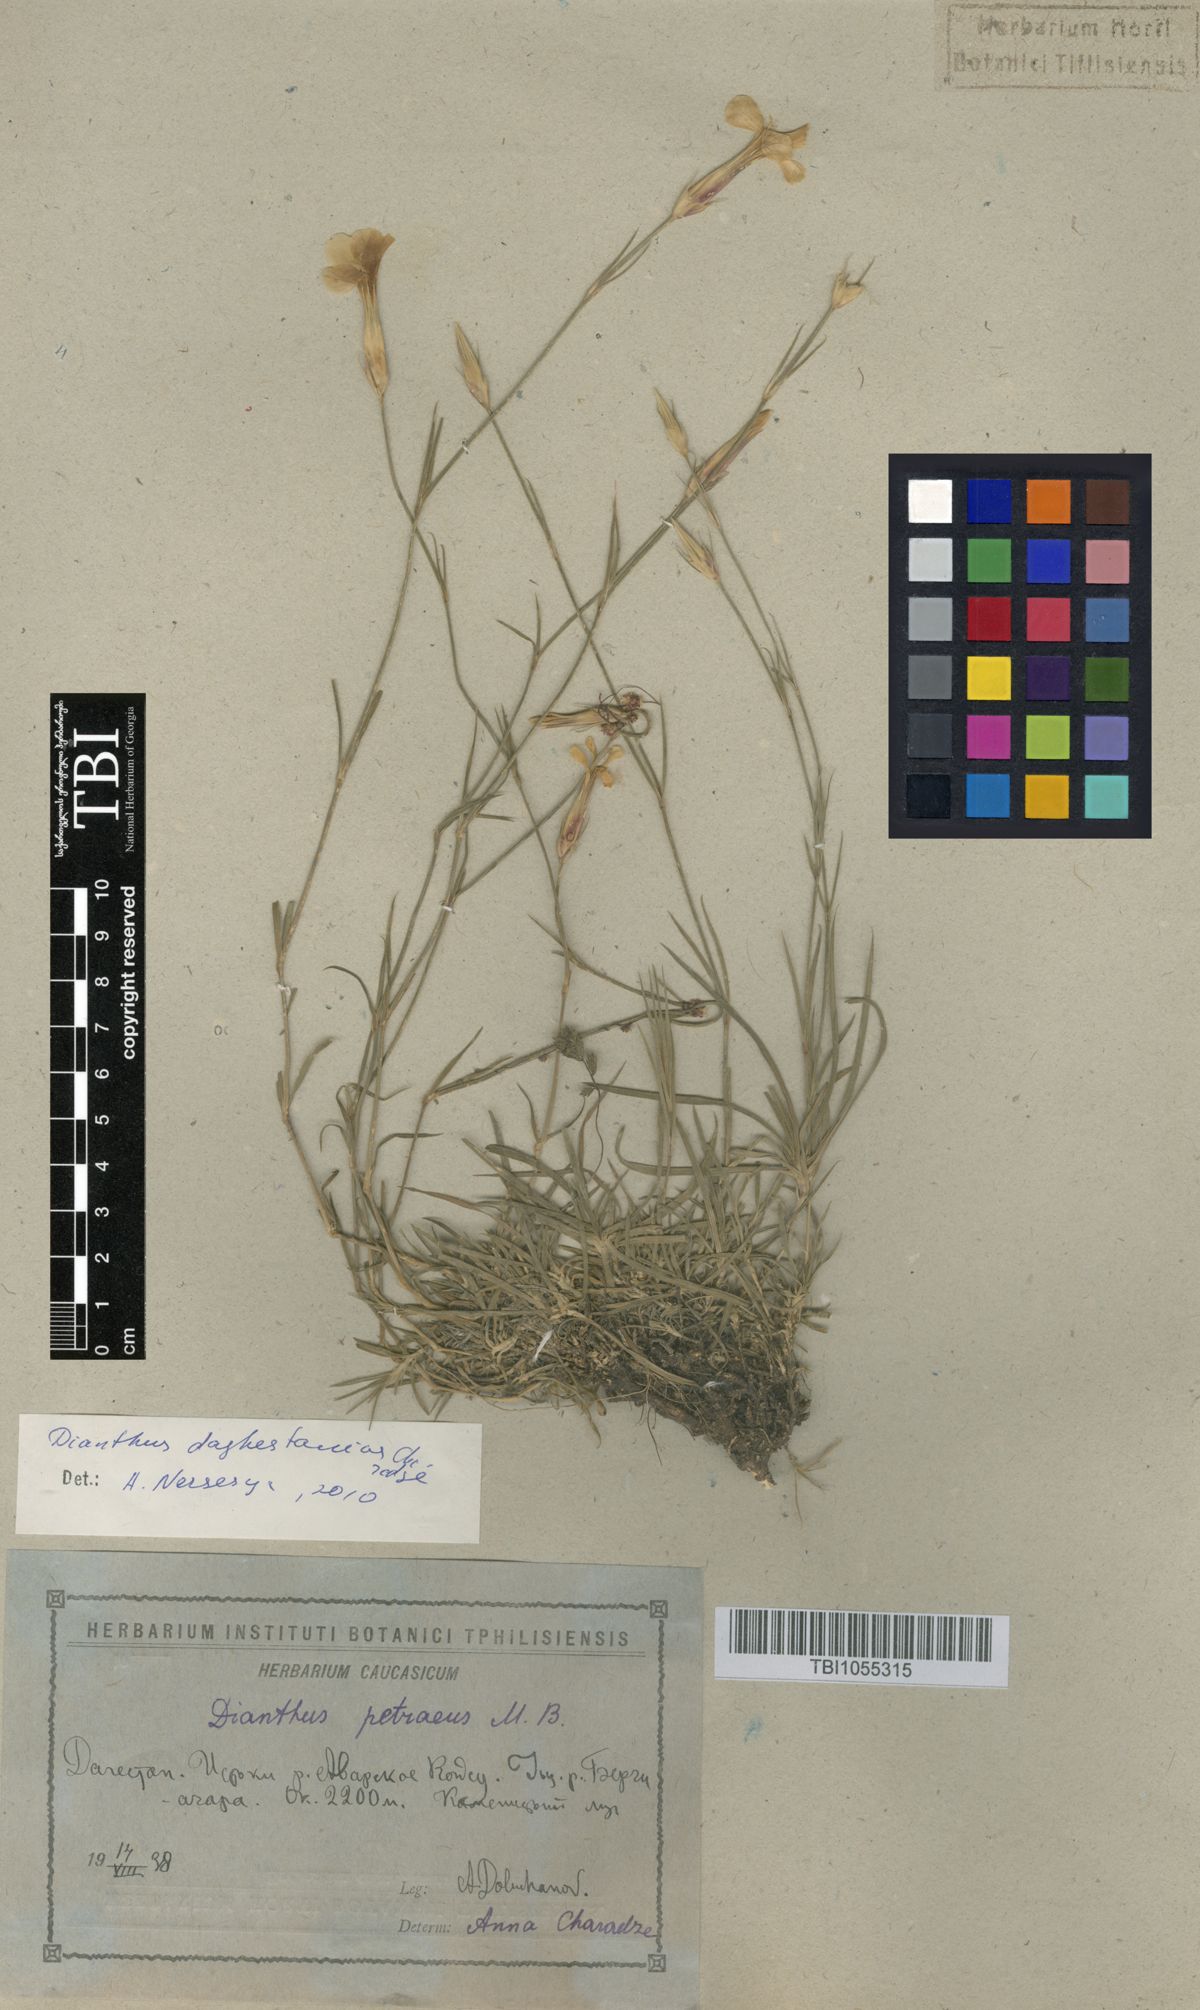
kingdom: Plantae
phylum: Tracheophyta
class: Magnoliopsida
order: Caryophyllales
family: Caryophyllaceae
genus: Dianthus
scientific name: Dianthus cretaceus
